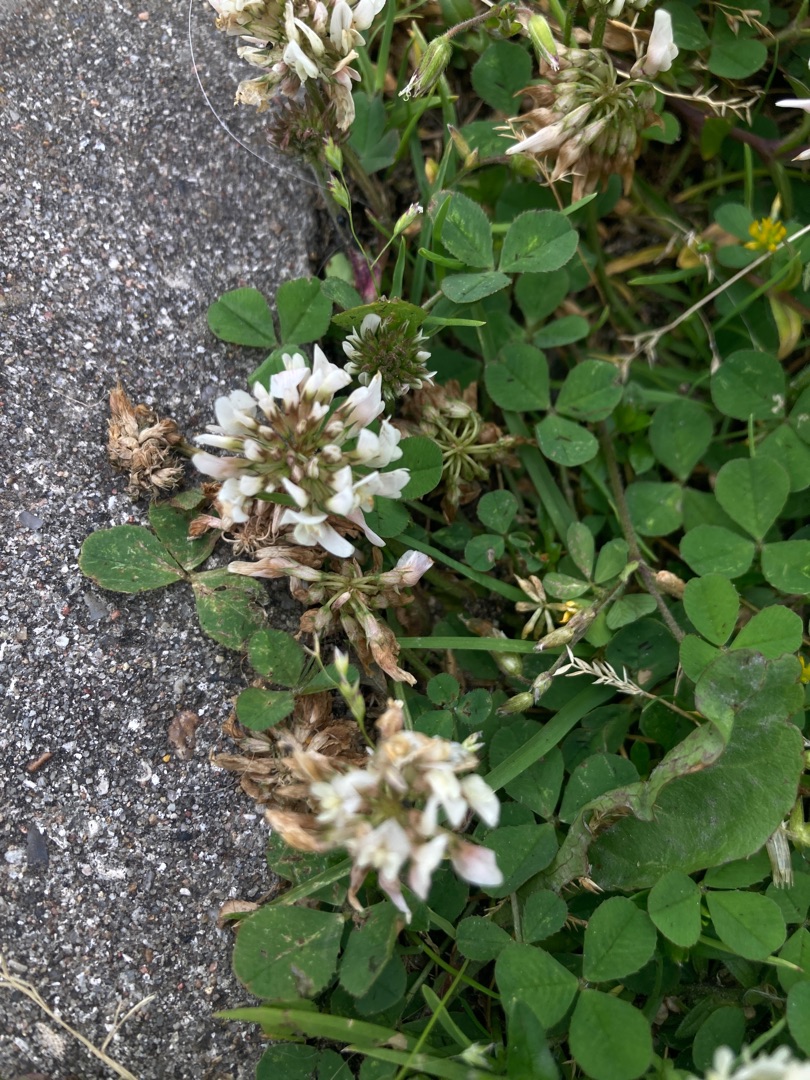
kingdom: Plantae
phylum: Tracheophyta
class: Magnoliopsida
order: Fabales
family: Fabaceae
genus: Trifolium
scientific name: Trifolium repens
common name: Hvid-kløver
